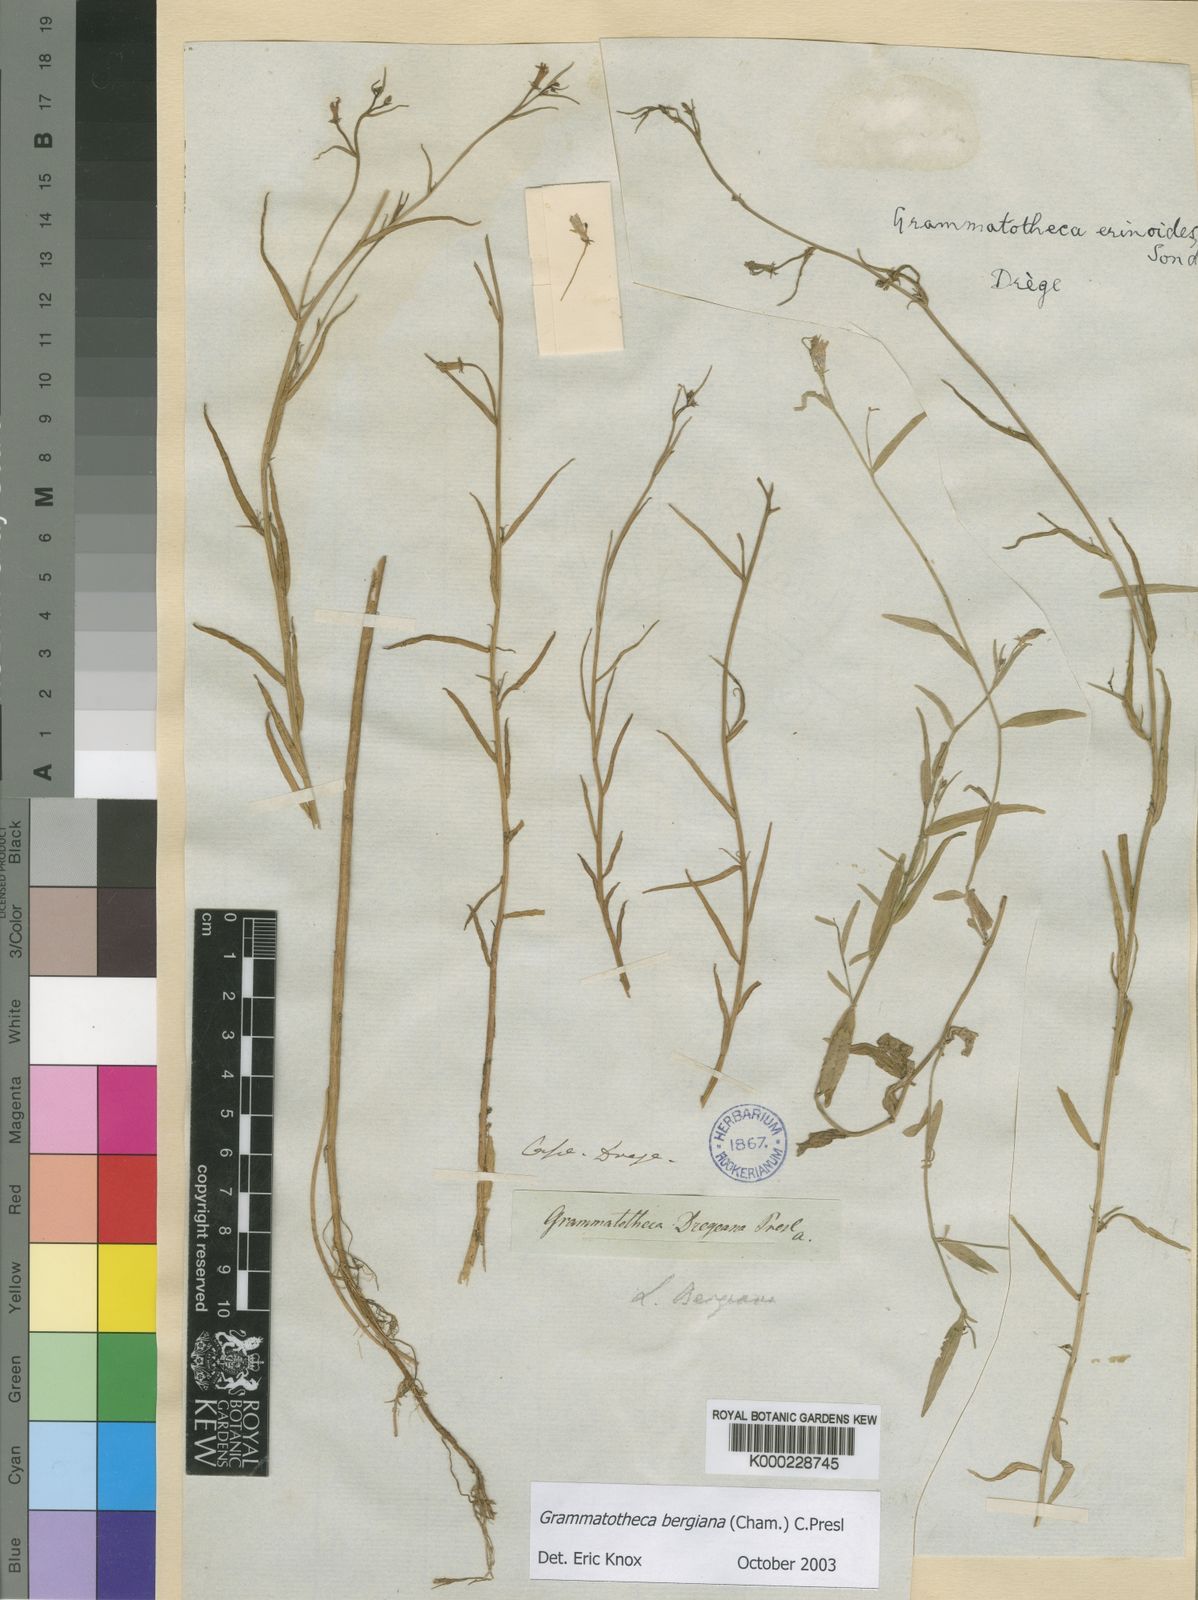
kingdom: Plantae
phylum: Tracheophyta
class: Magnoliopsida
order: Asterales
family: Campanulaceae
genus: Grammatotheca
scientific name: Grammatotheca bergiana
